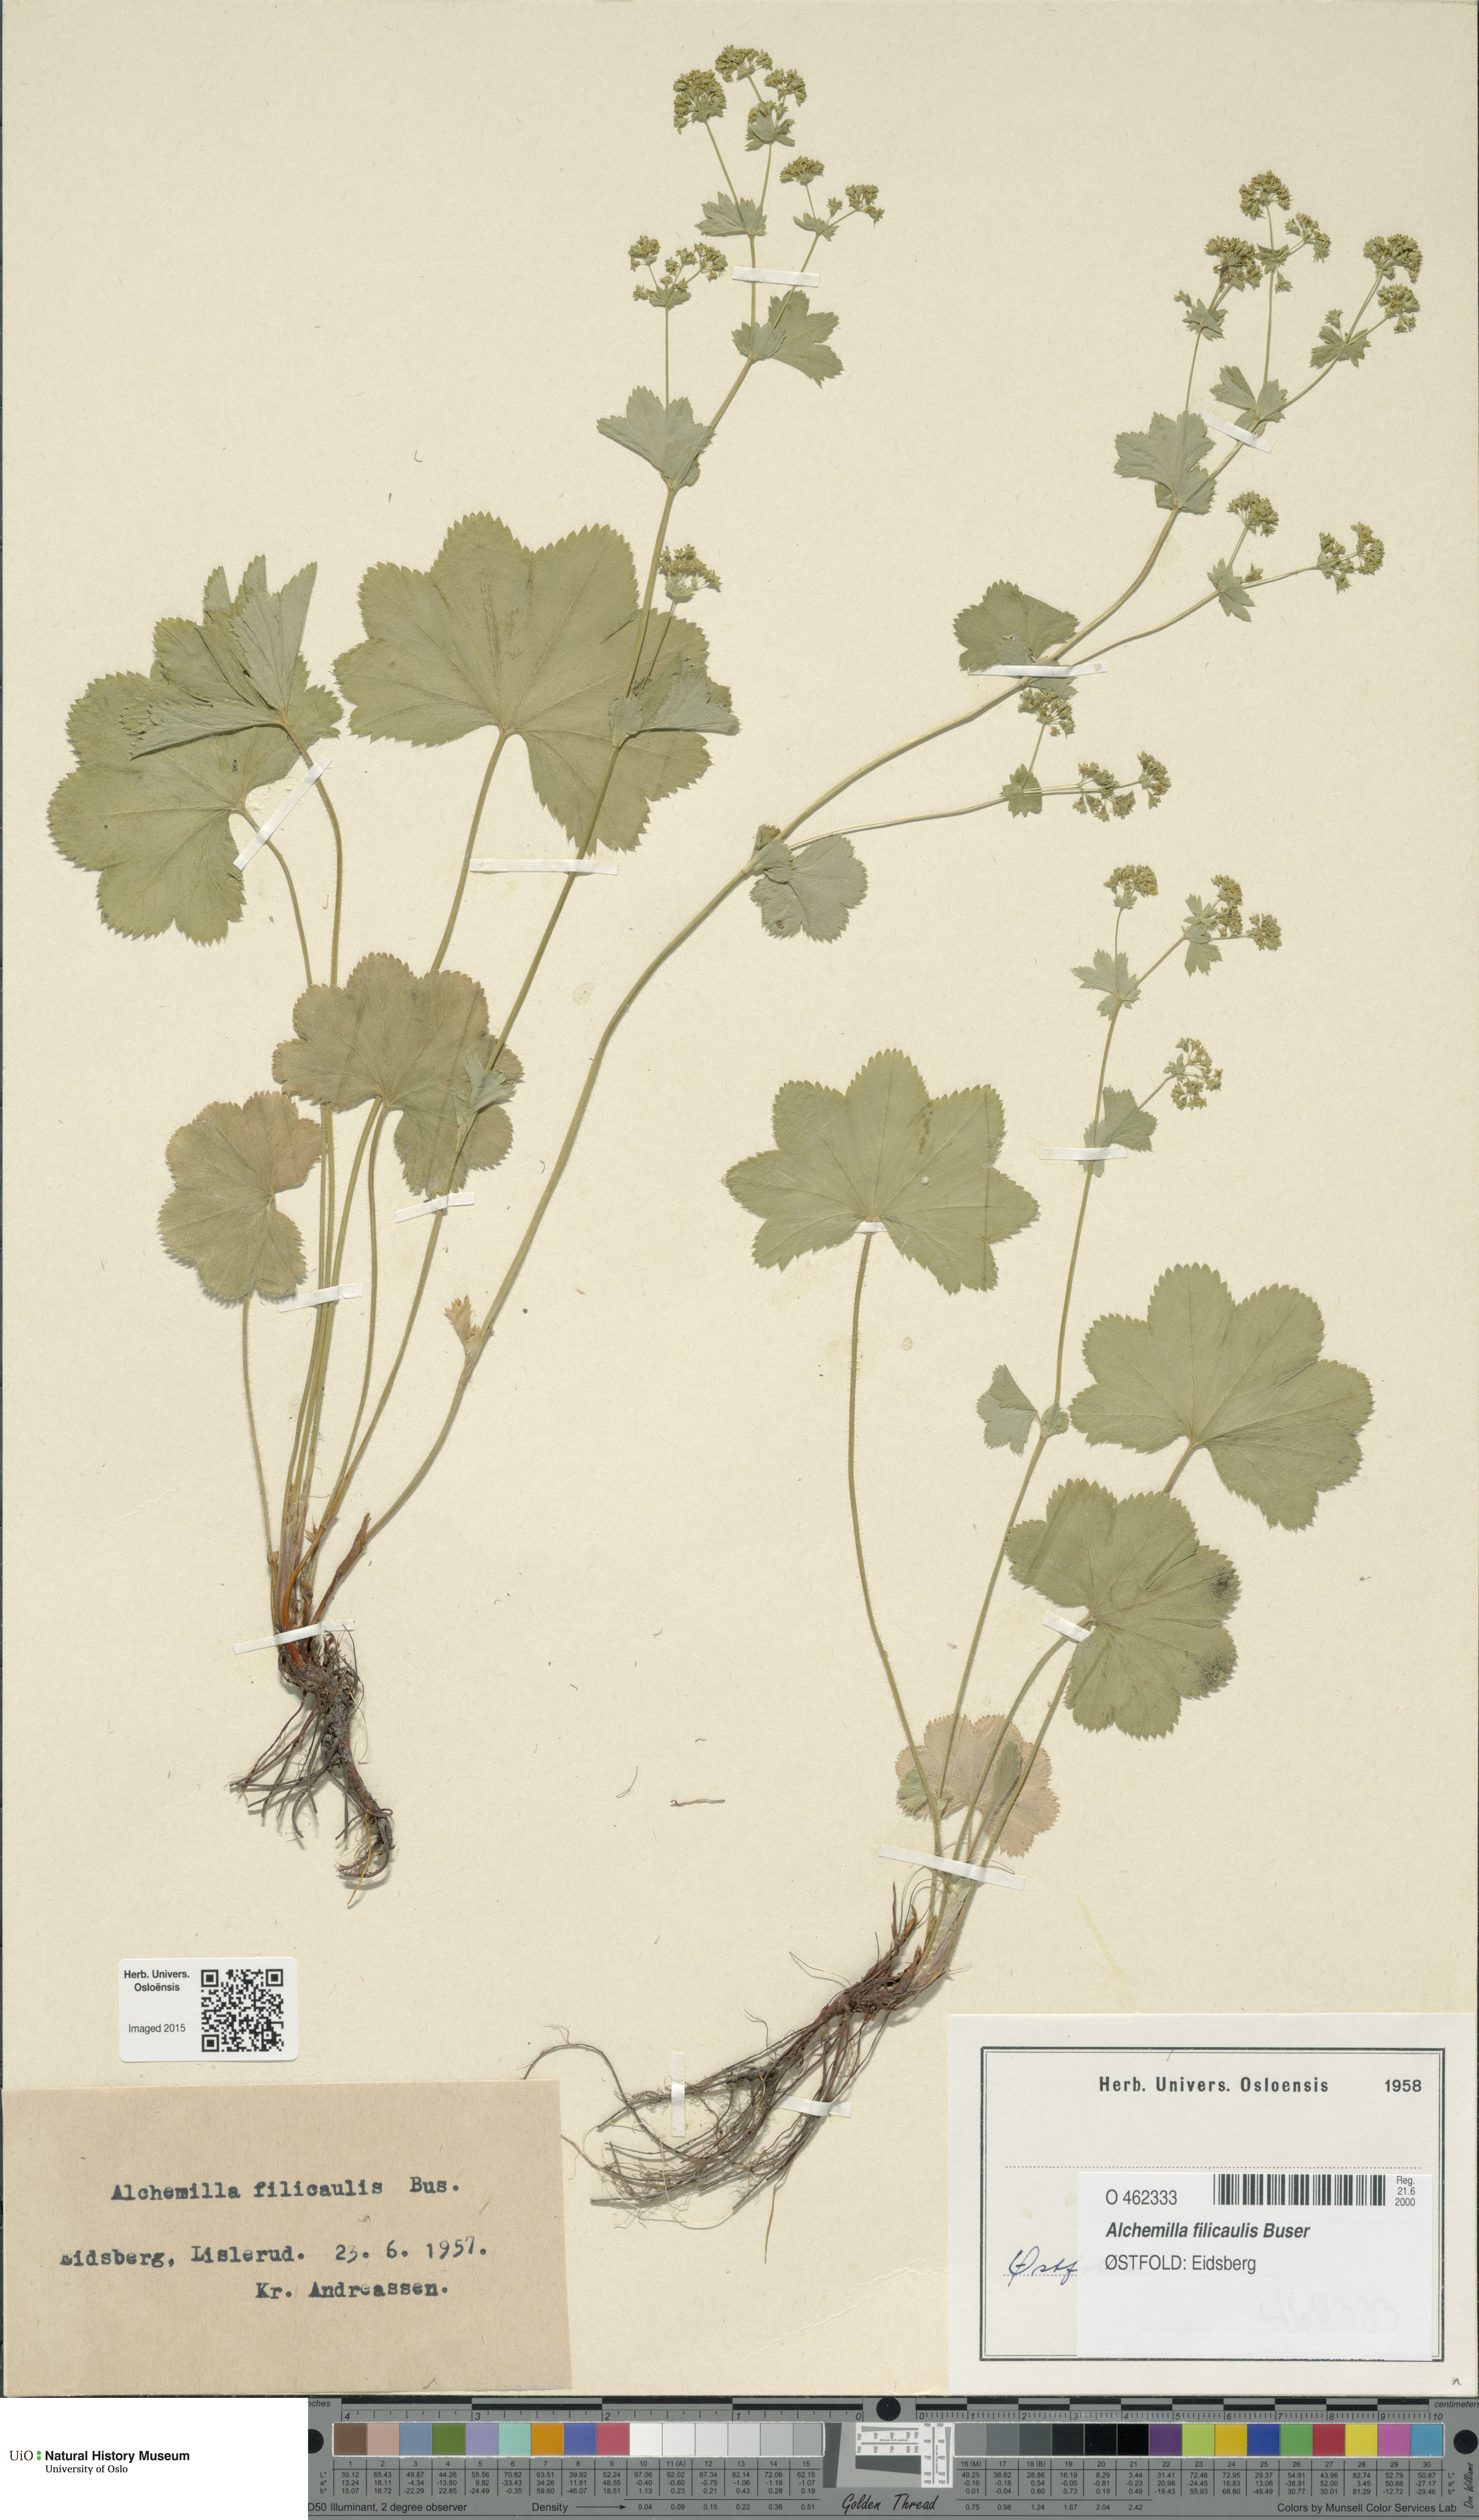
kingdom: Plantae
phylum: Tracheophyta
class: Magnoliopsida
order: Rosales
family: Rosaceae
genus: Alchemilla
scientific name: Alchemilla filicaulis
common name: Hairy lady's-mantle
